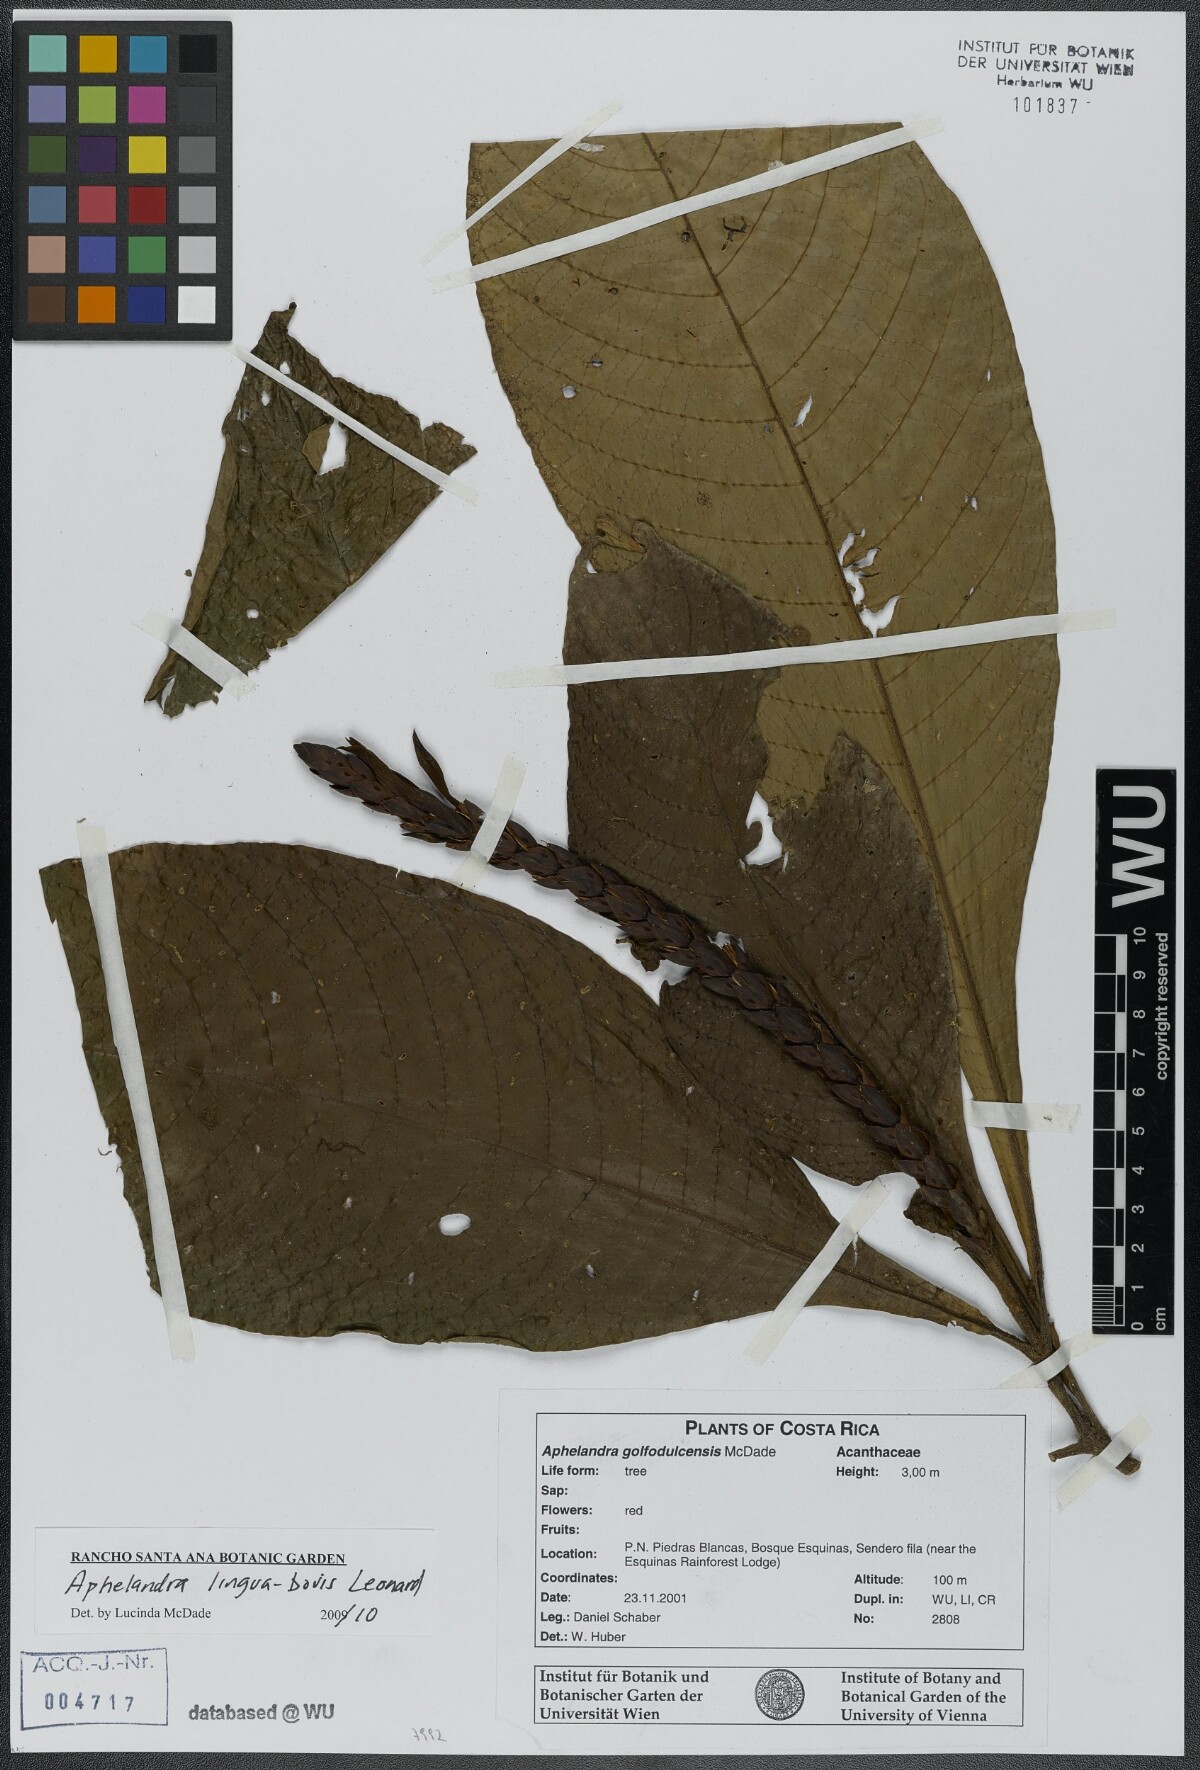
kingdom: Plantae
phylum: Tracheophyta
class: Magnoliopsida
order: Lamiales
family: Acanthaceae
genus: Aphelandra
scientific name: Aphelandra lingua-bovis
